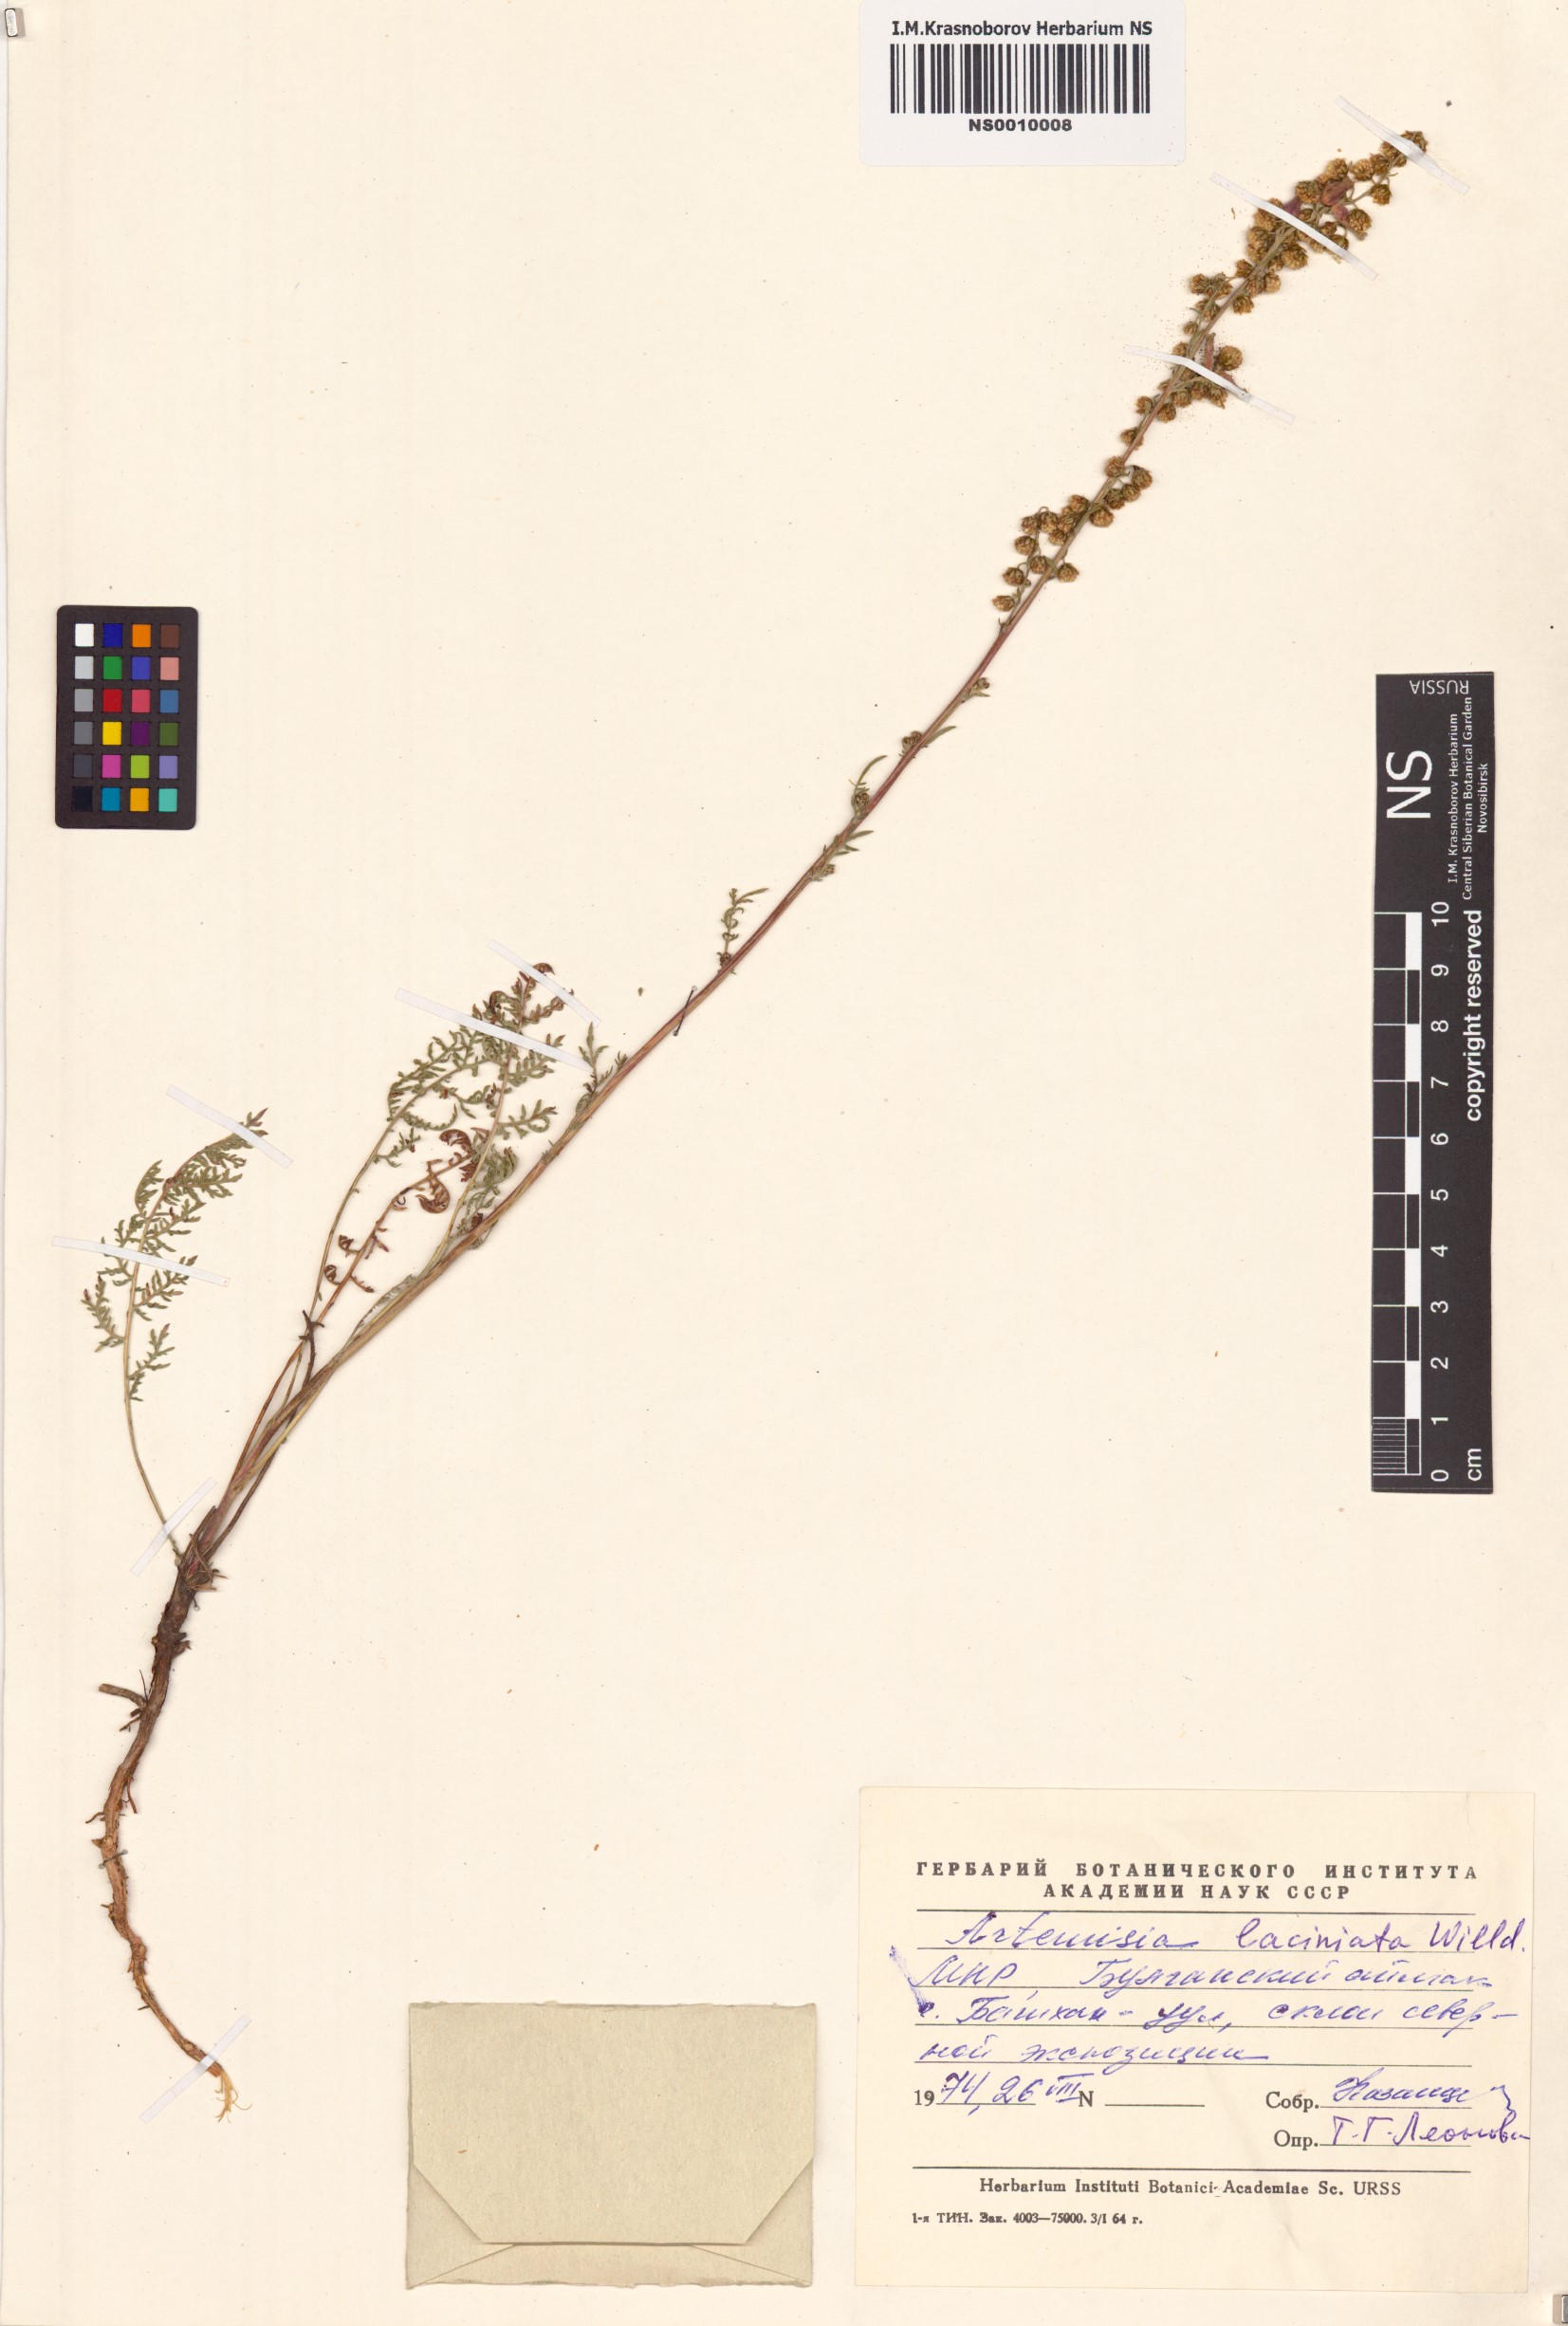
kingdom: Plantae
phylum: Tracheophyta
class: Magnoliopsida
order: Asterales
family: Asteraceae
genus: Artemisia
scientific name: Artemisia laciniata
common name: Siberian wormwood
